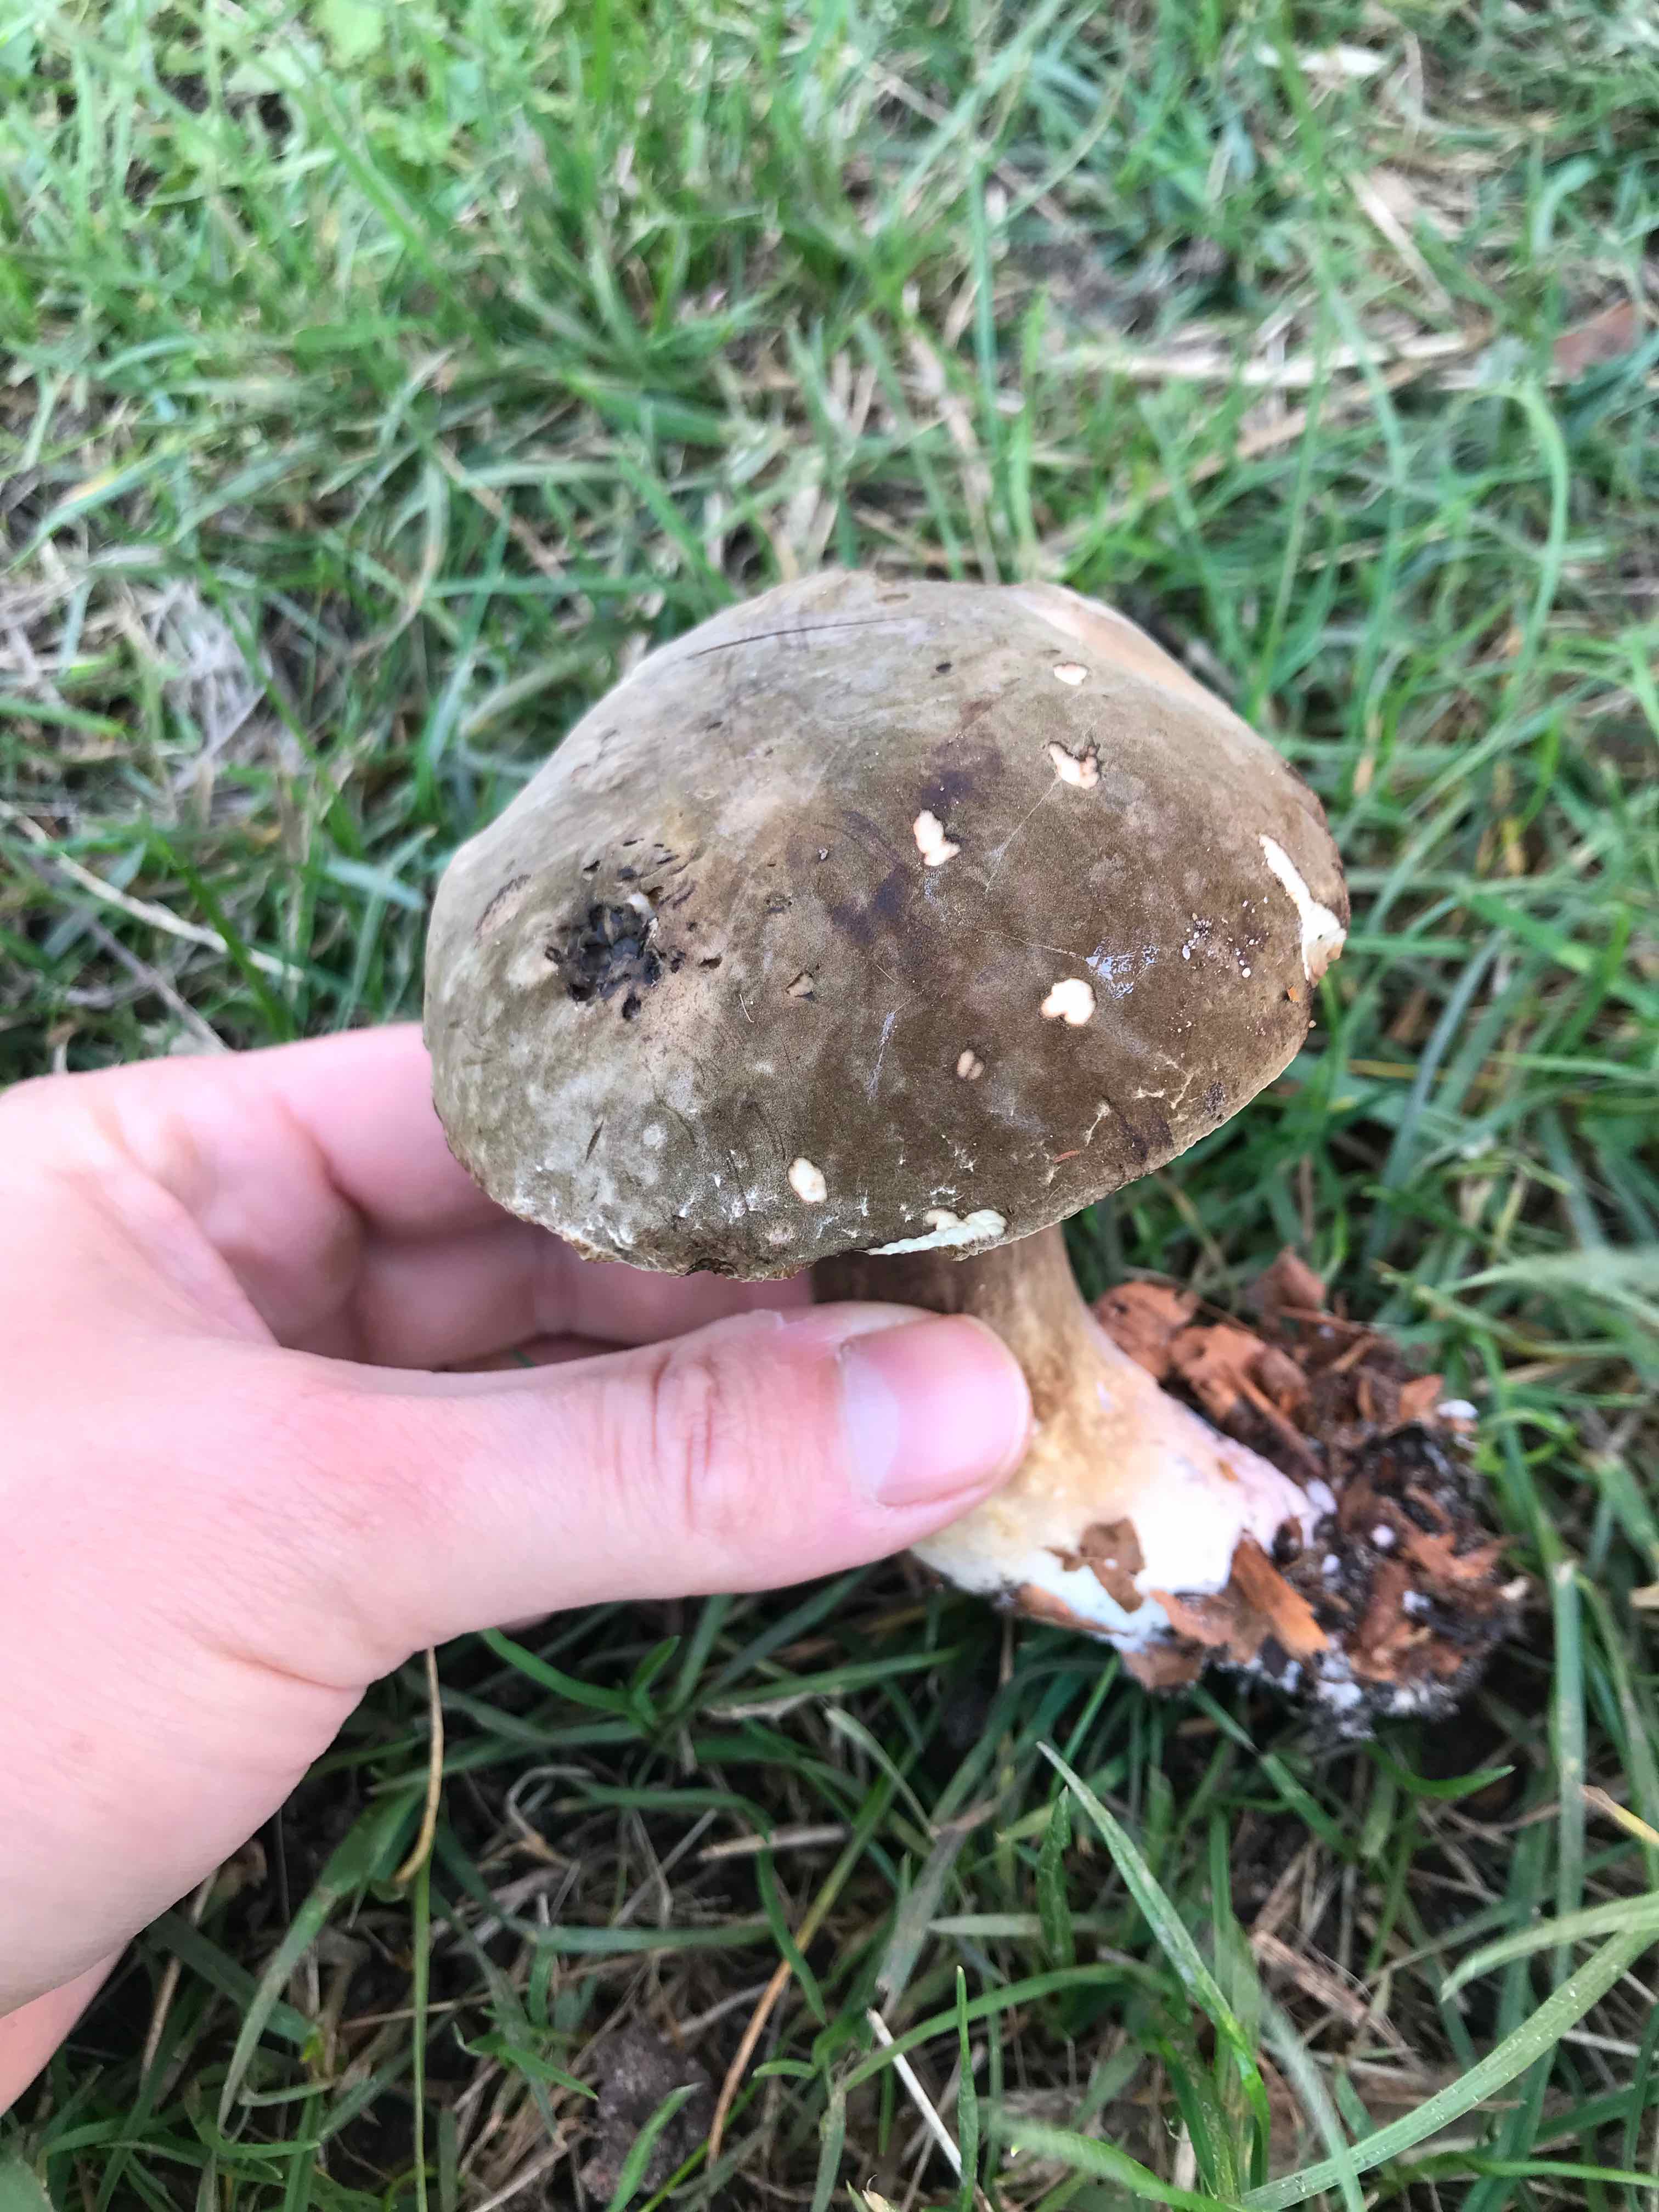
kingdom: Fungi
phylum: Basidiomycota
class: Agaricomycetes
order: Boletales
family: Boletaceae
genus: Porphyrellus
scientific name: Porphyrellus porphyrosporus
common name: sodrørhat
